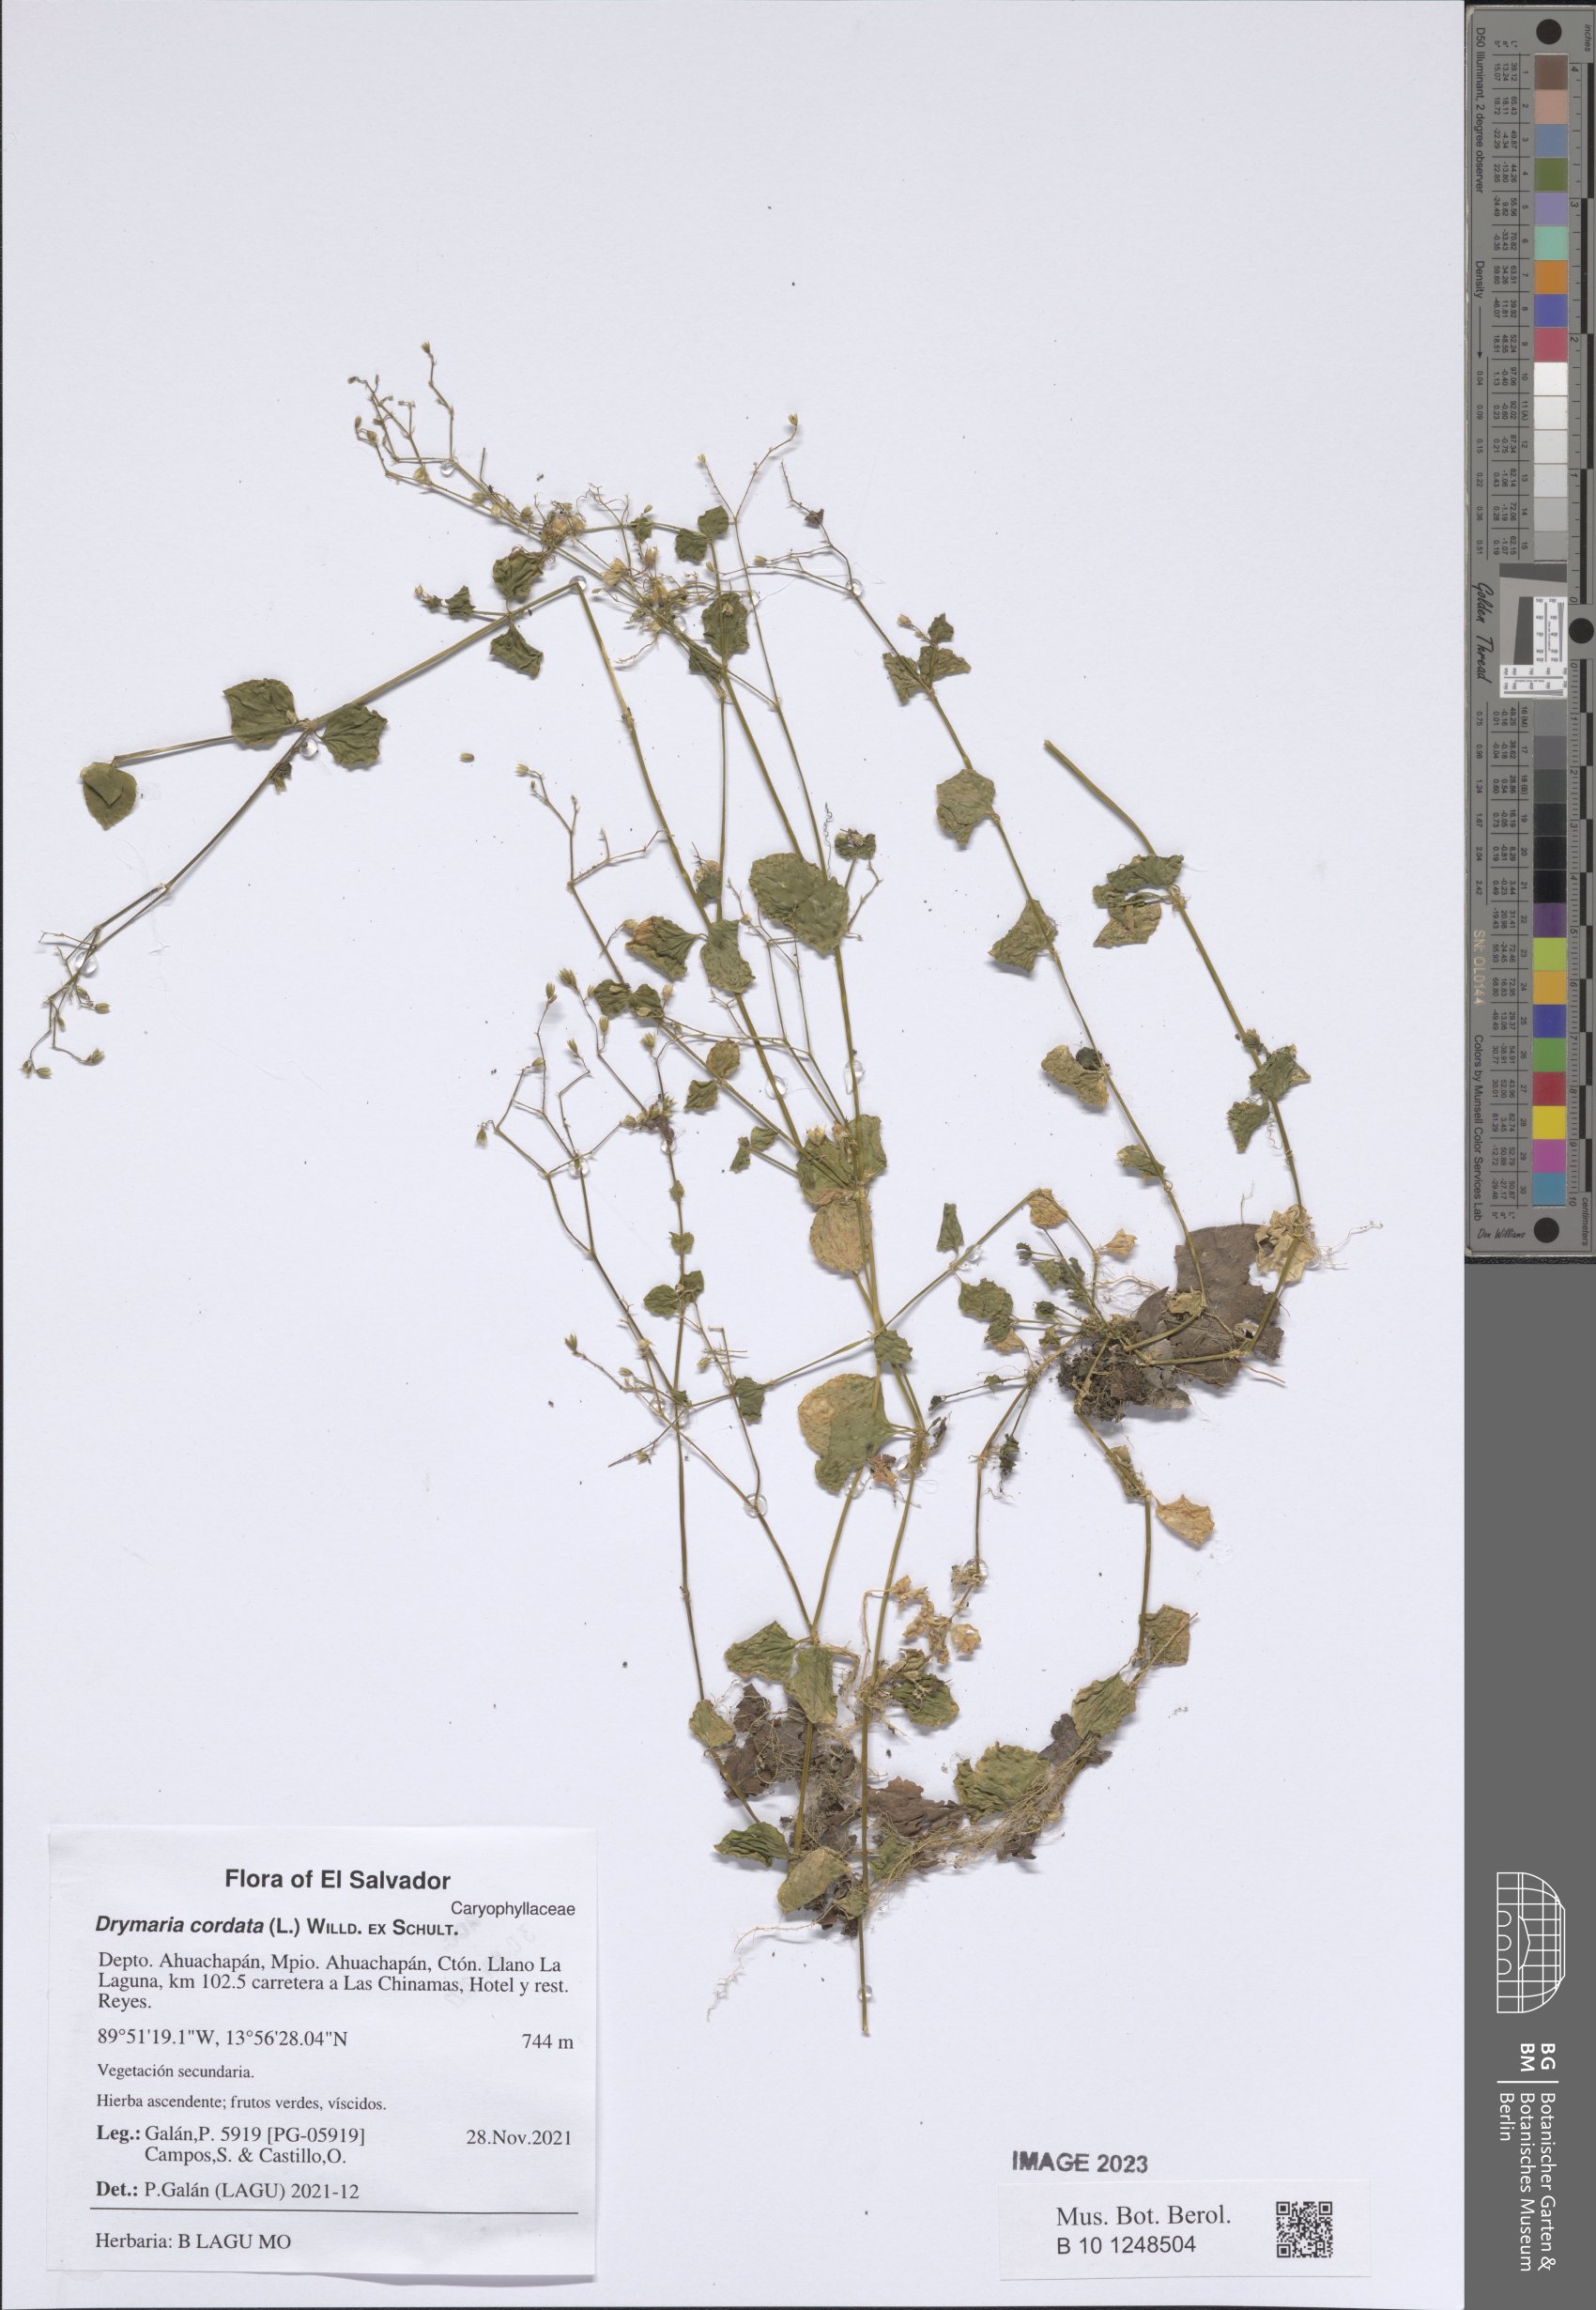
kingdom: Plantae
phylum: Tracheophyta
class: Magnoliopsida
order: Caryophyllales
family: Caryophyllaceae
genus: Drymaria
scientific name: Drymaria cordata
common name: Whitesnow
